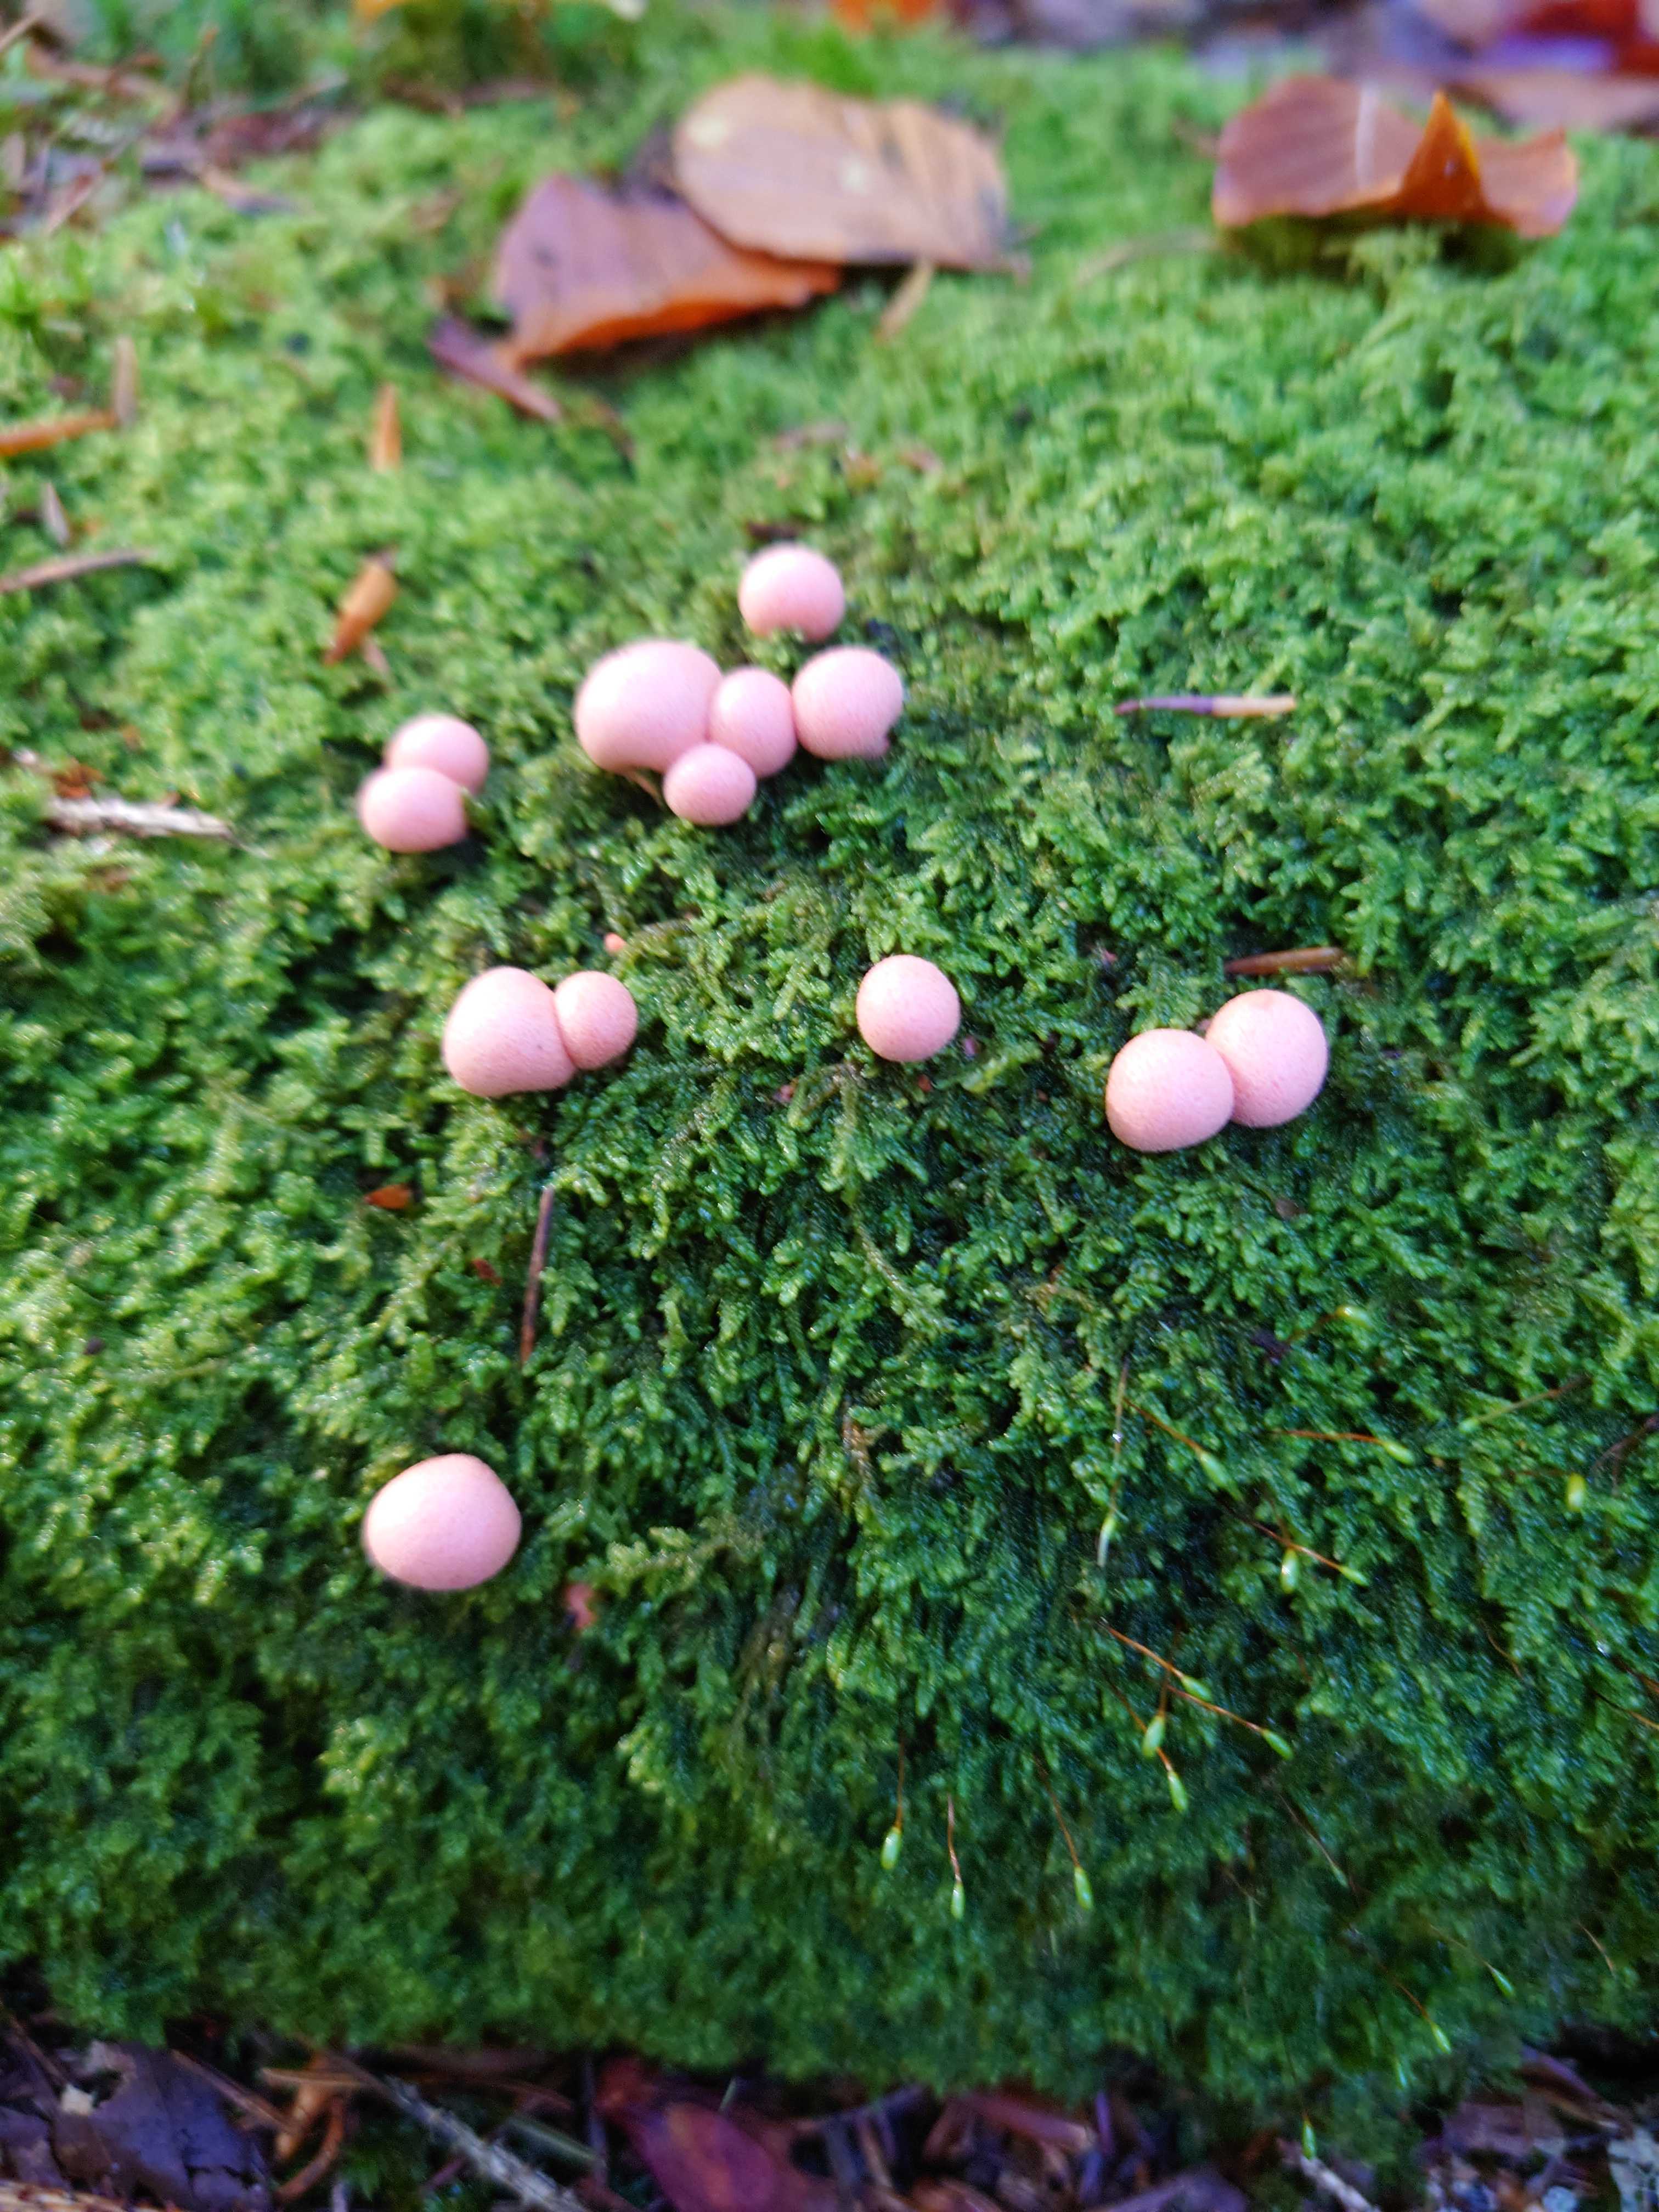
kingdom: Protozoa
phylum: Mycetozoa
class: Myxomycetes
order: Cribrariales
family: Tubiferaceae
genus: Lycogala
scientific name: Lycogala epidendrum
